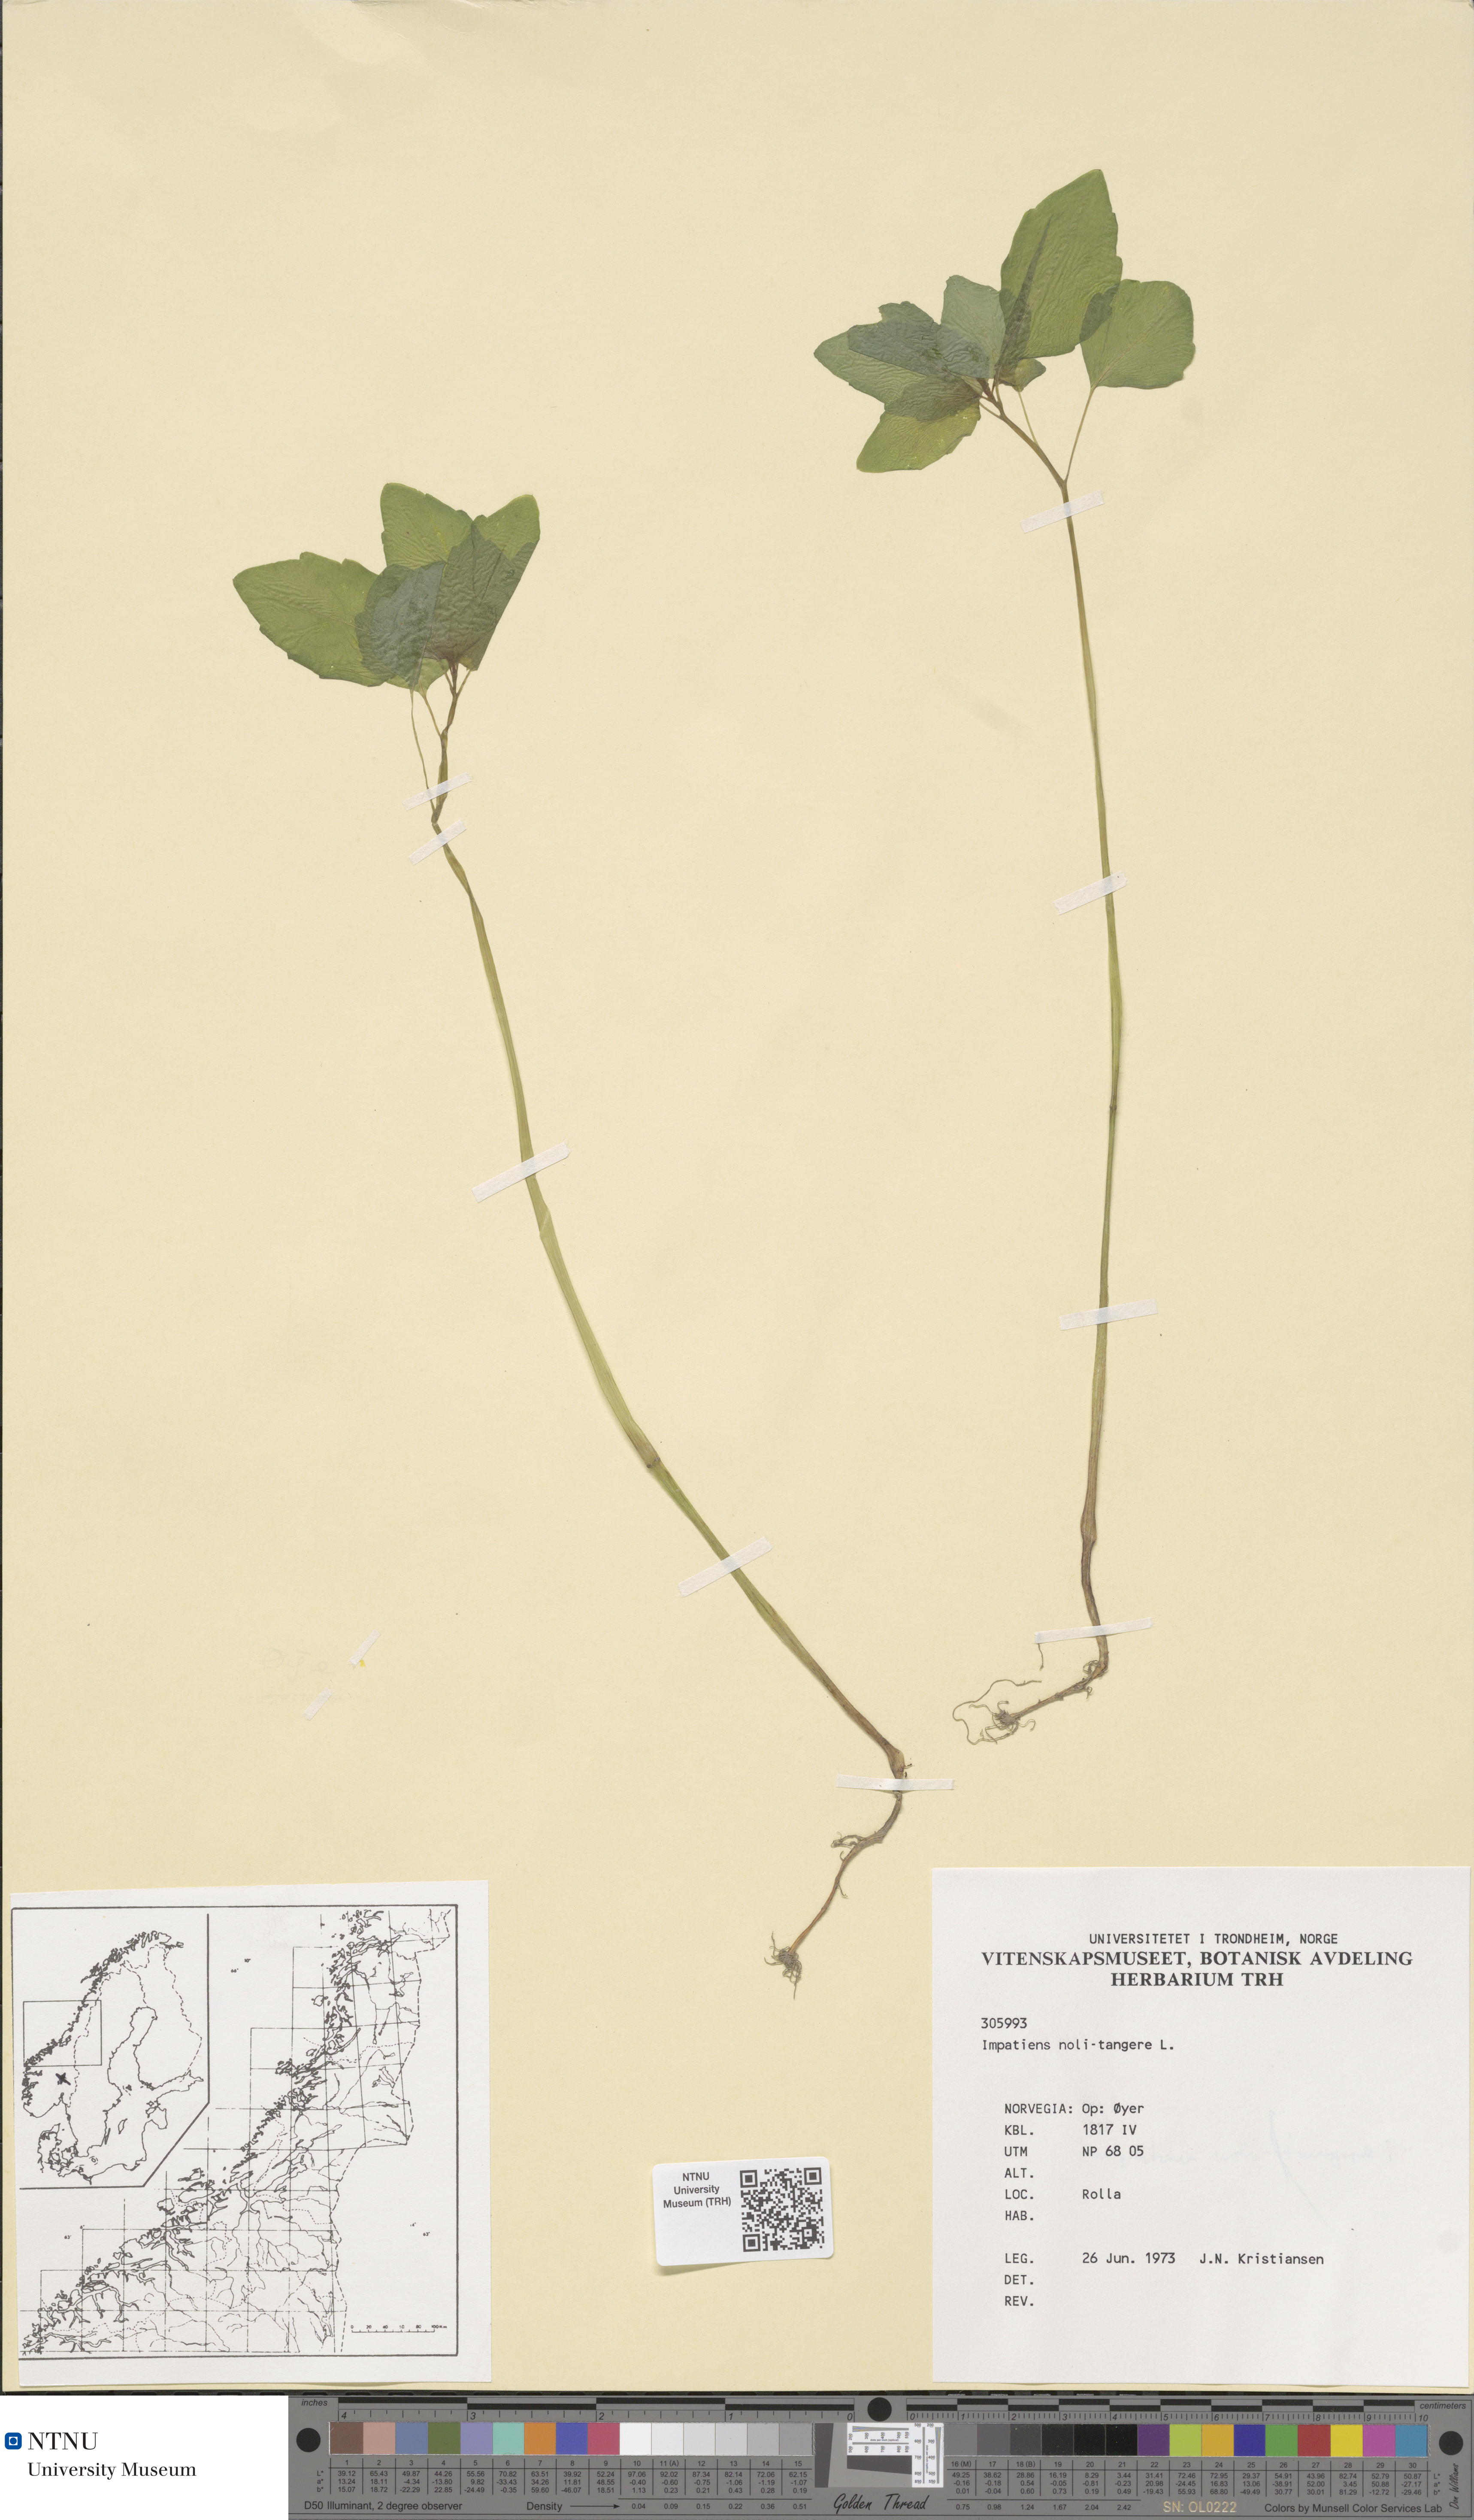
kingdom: Plantae
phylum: Tracheophyta
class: Magnoliopsida
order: Ericales
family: Balsaminaceae
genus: Impatiens
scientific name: Impatiens noli-tangere
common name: Touch-me-not balsam
